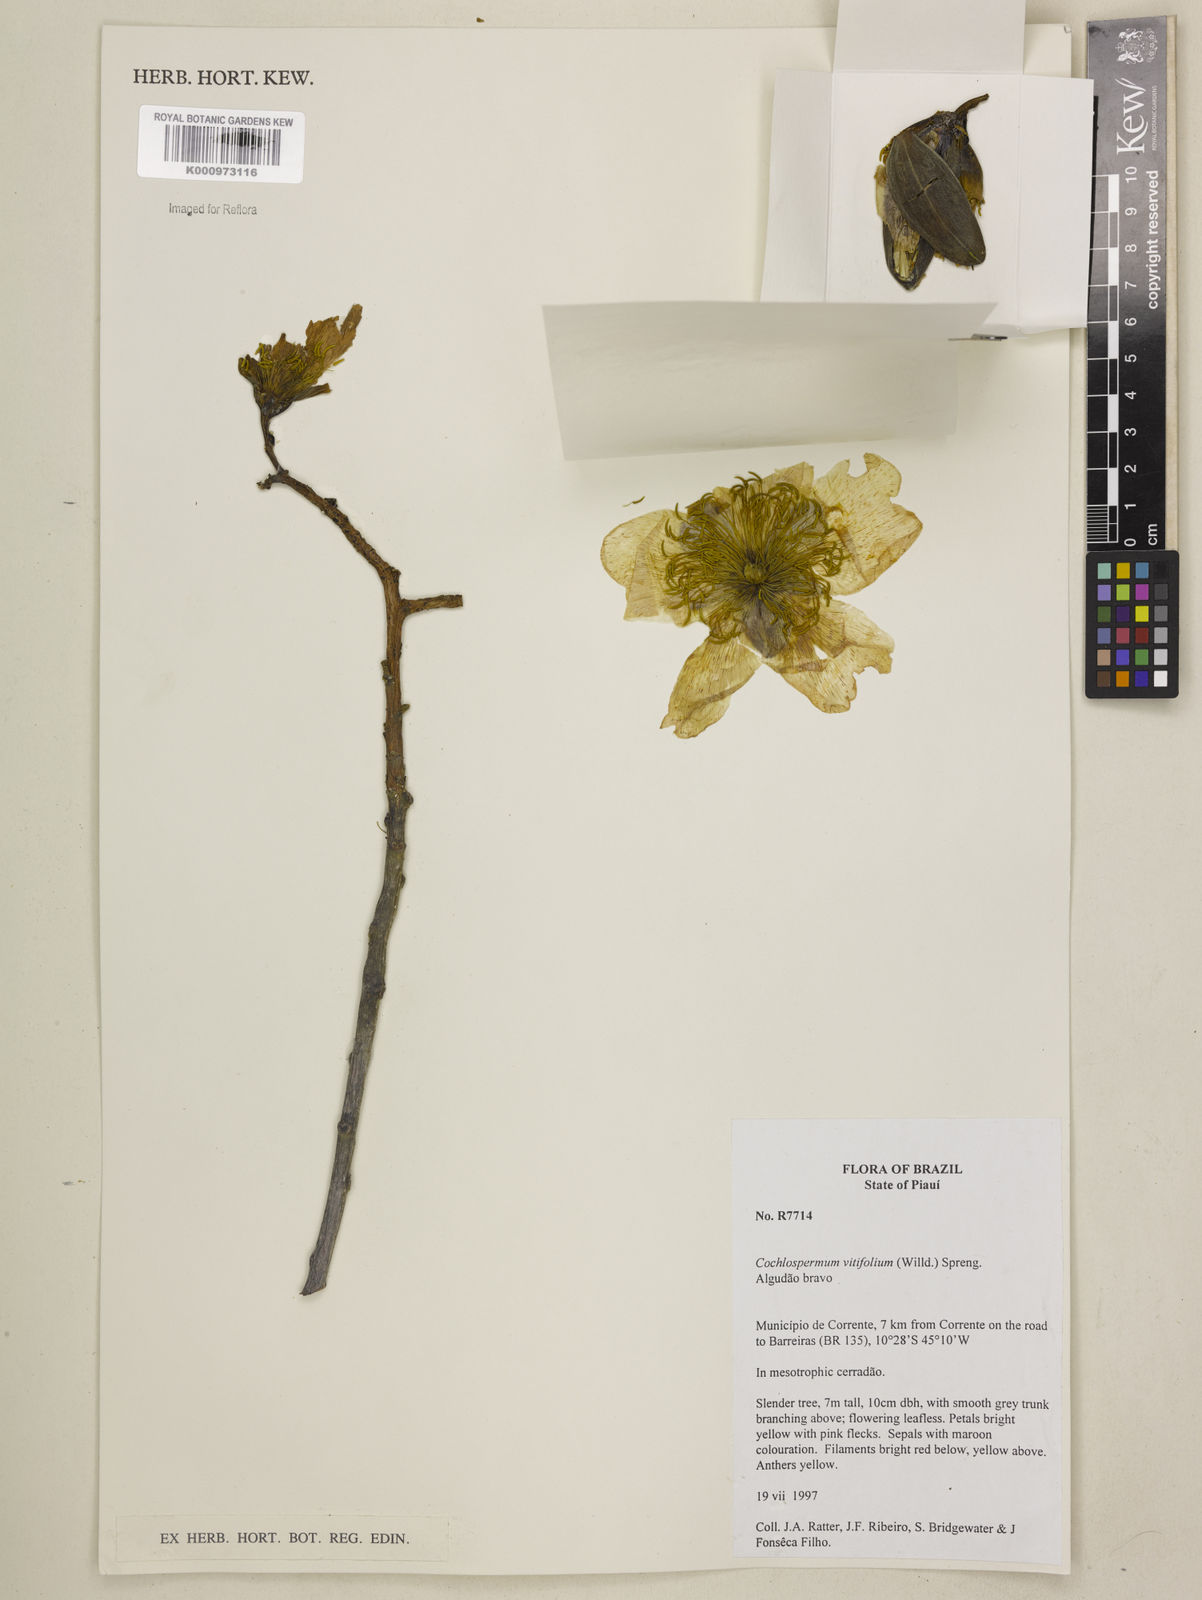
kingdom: Plantae
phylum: Tracheophyta
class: Magnoliopsida
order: Malvales
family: Cochlospermaceae
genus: Cochlospermum
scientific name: Cochlospermum regium
